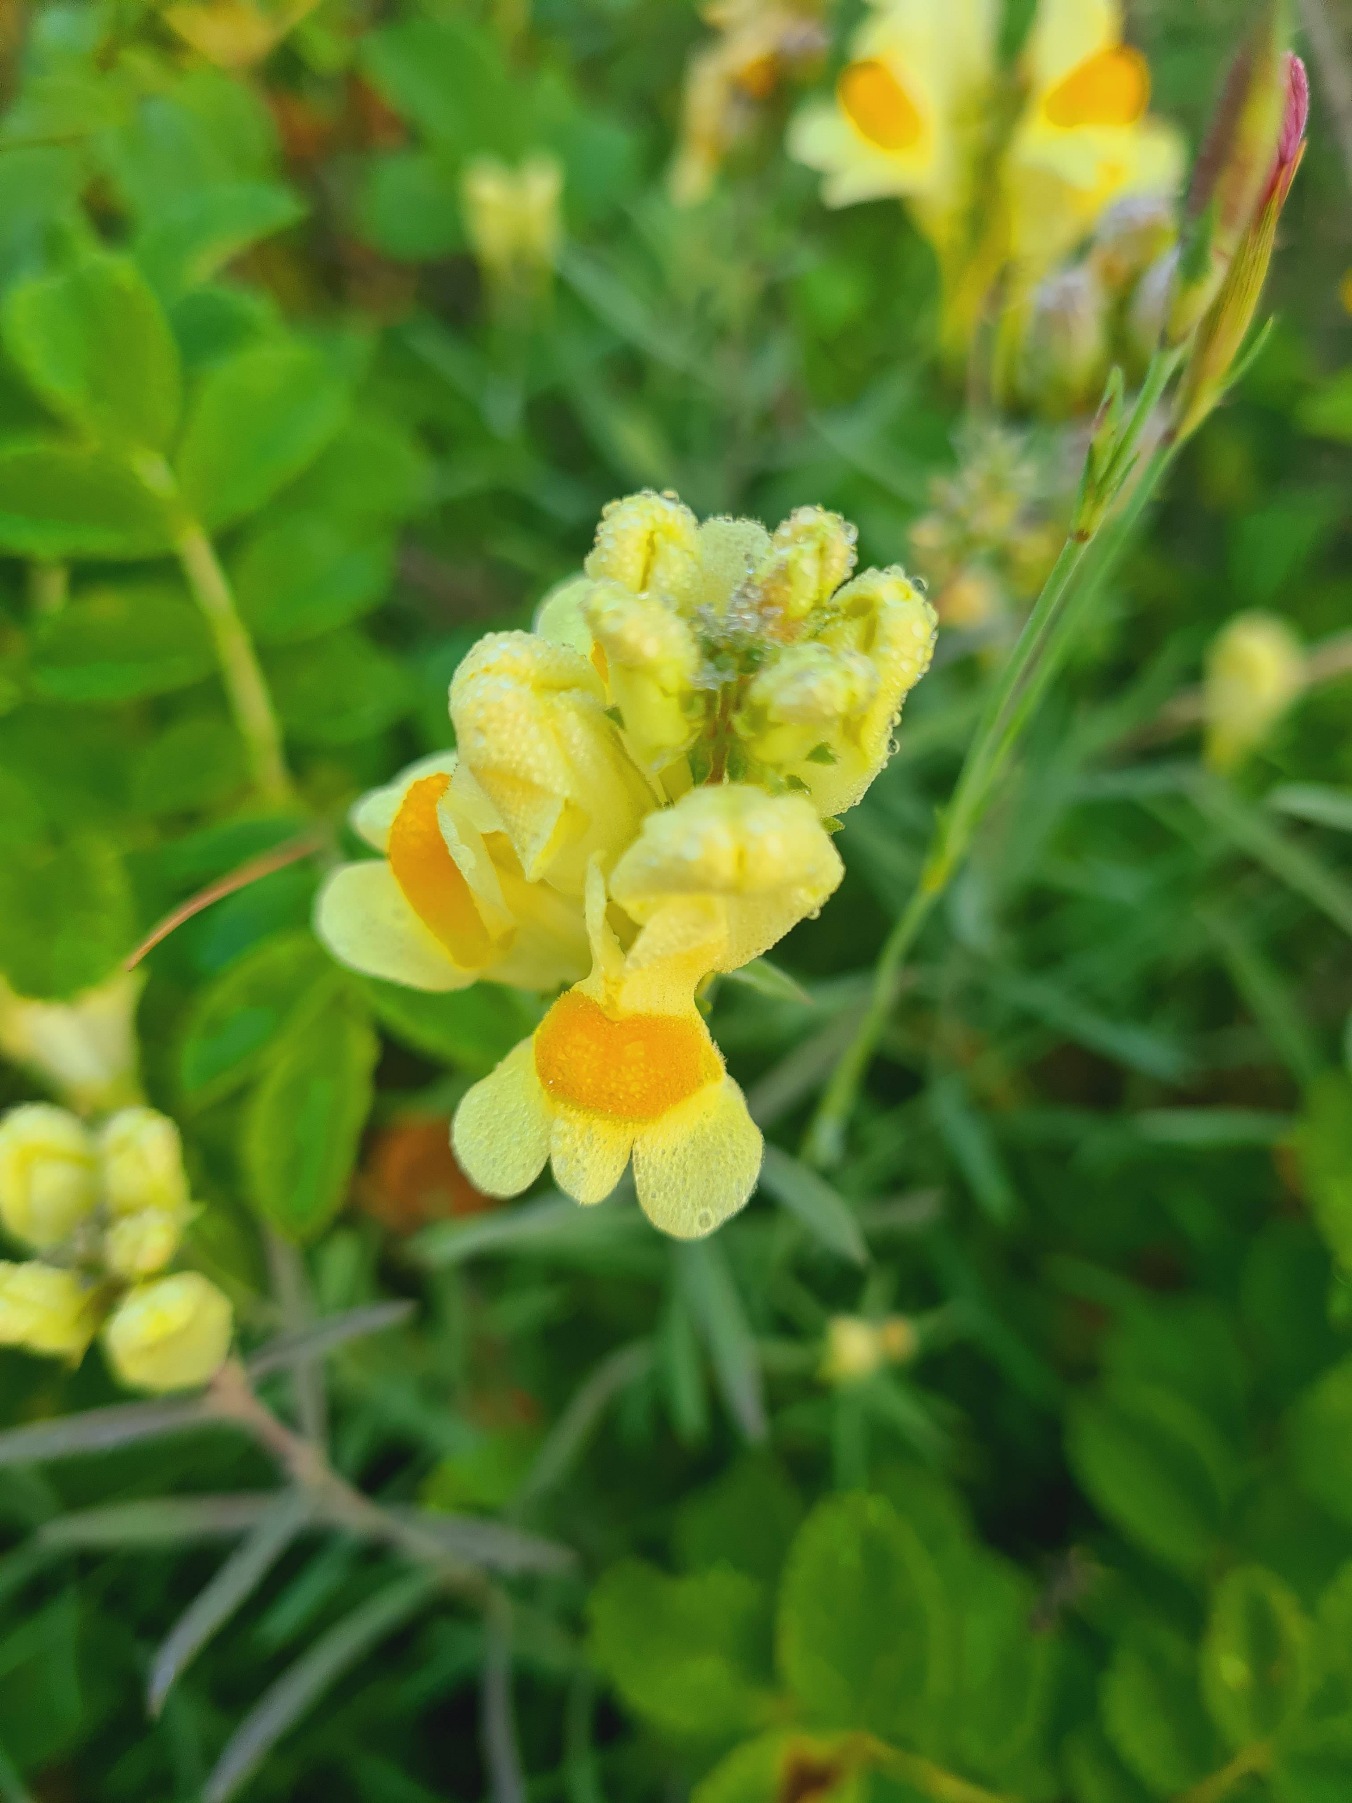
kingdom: Plantae
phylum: Tracheophyta
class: Magnoliopsida
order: Lamiales
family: Plantaginaceae
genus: Linaria
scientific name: Linaria vulgaris
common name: Almindelig torskemund
